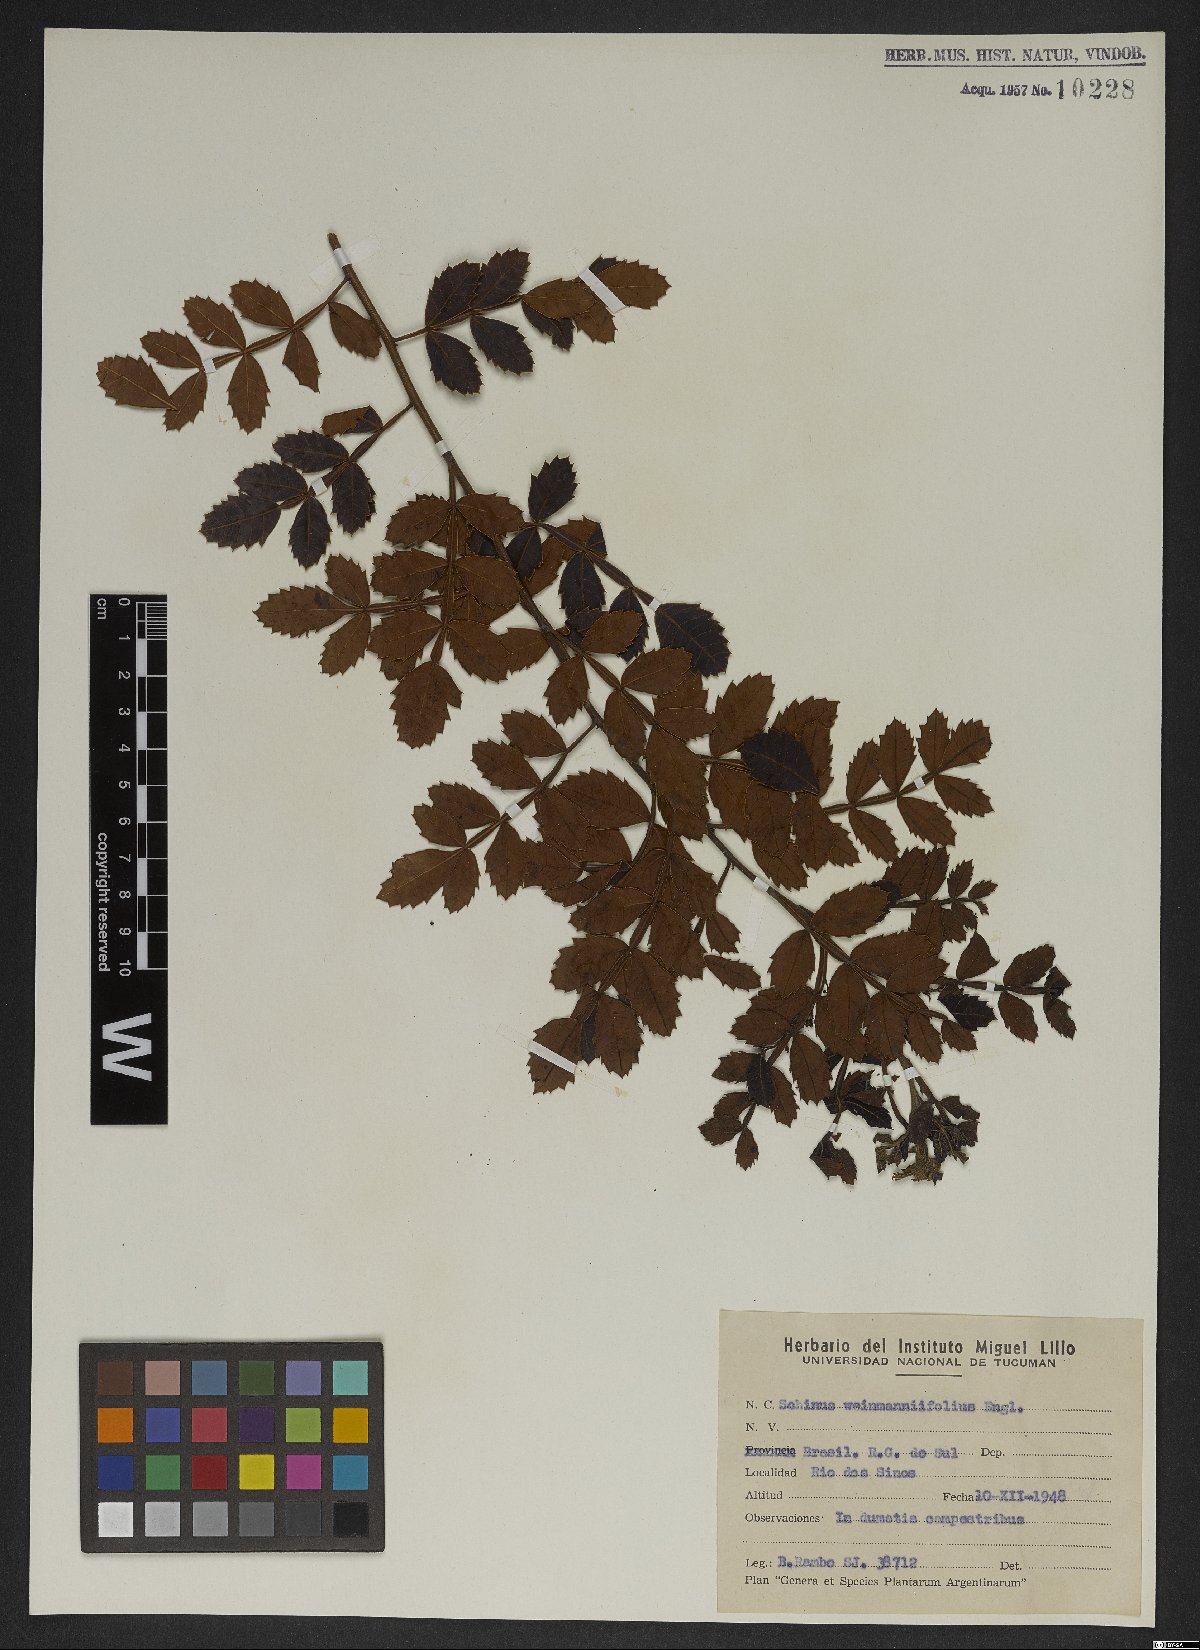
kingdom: Plantae
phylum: Tracheophyta
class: Magnoliopsida
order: Sapindales
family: Anacardiaceae
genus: Schinus
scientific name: Schinus weinmanniifolia
